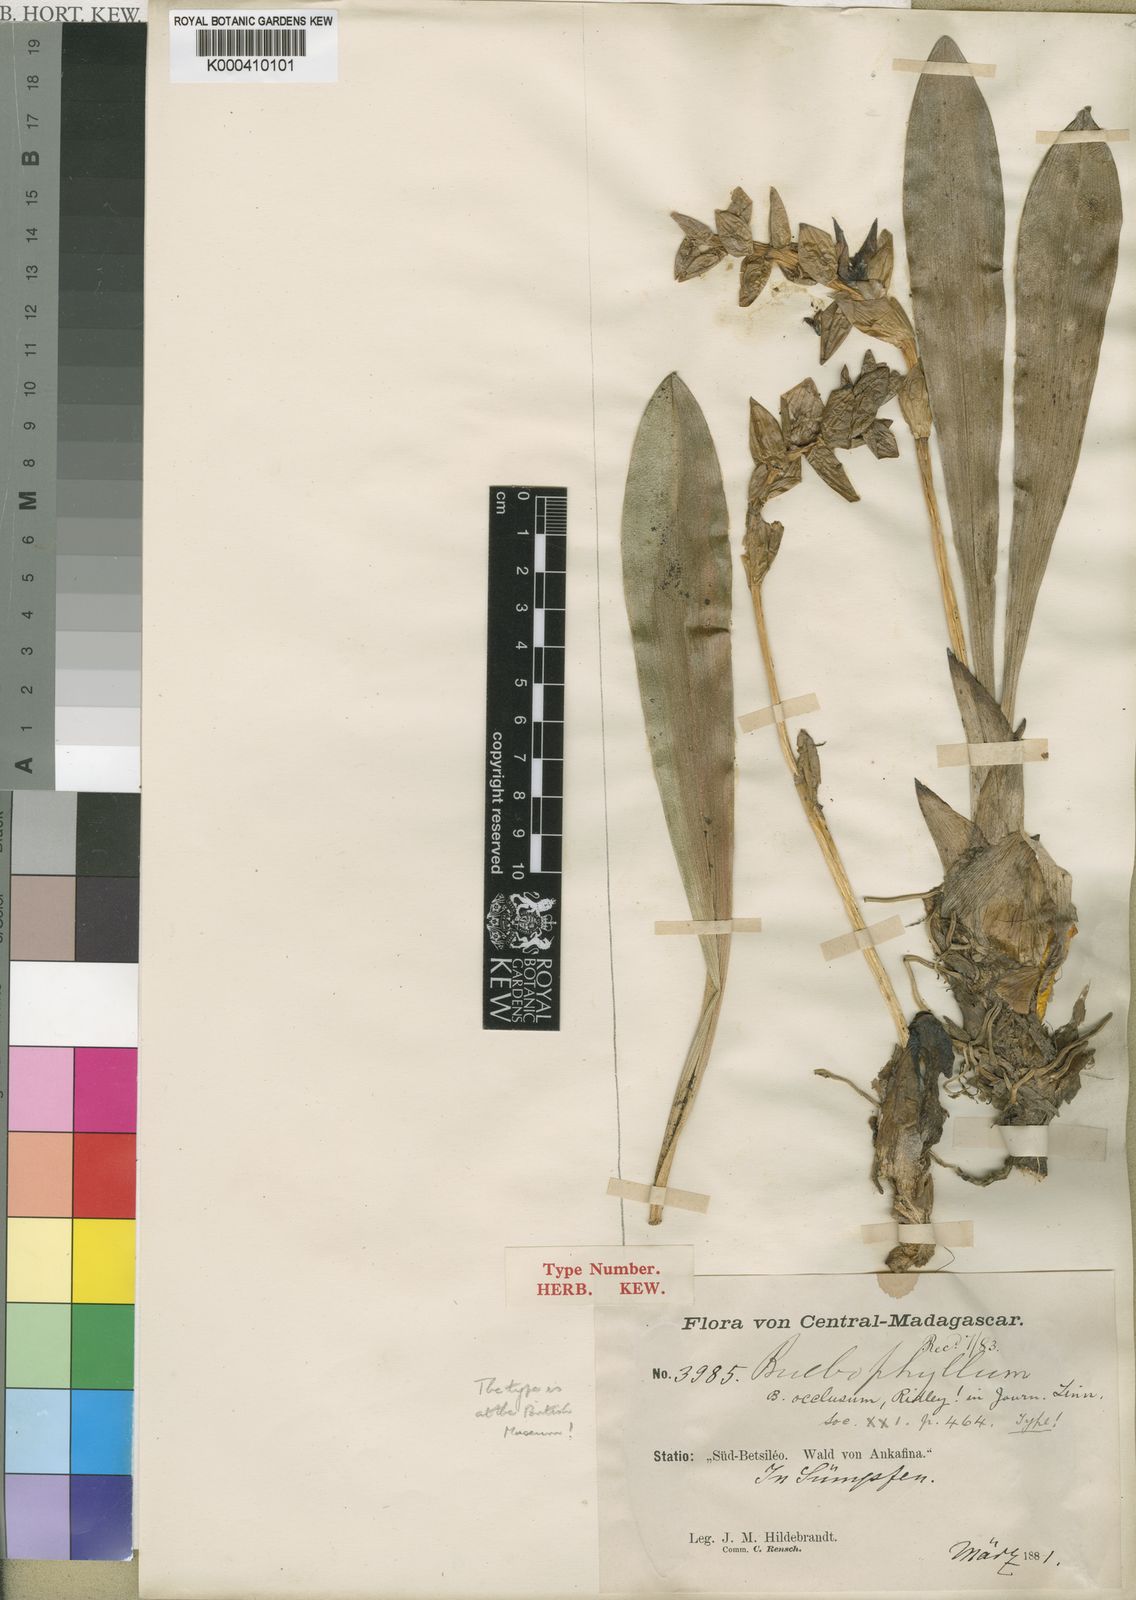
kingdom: Plantae
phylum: Tracheophyta
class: Liliopsida
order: Asparagales
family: Orchidaceae
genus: Bulbophyllum
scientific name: Bulbophyllum occlusum
